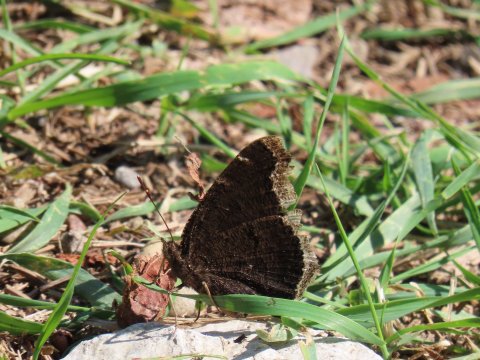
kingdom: Animalia
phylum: Arthropoda
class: Insecta
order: Lepidoptera
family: Nymphalidae
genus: Nymphalis
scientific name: Nymphalis antiopa
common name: Mourning Cloak
